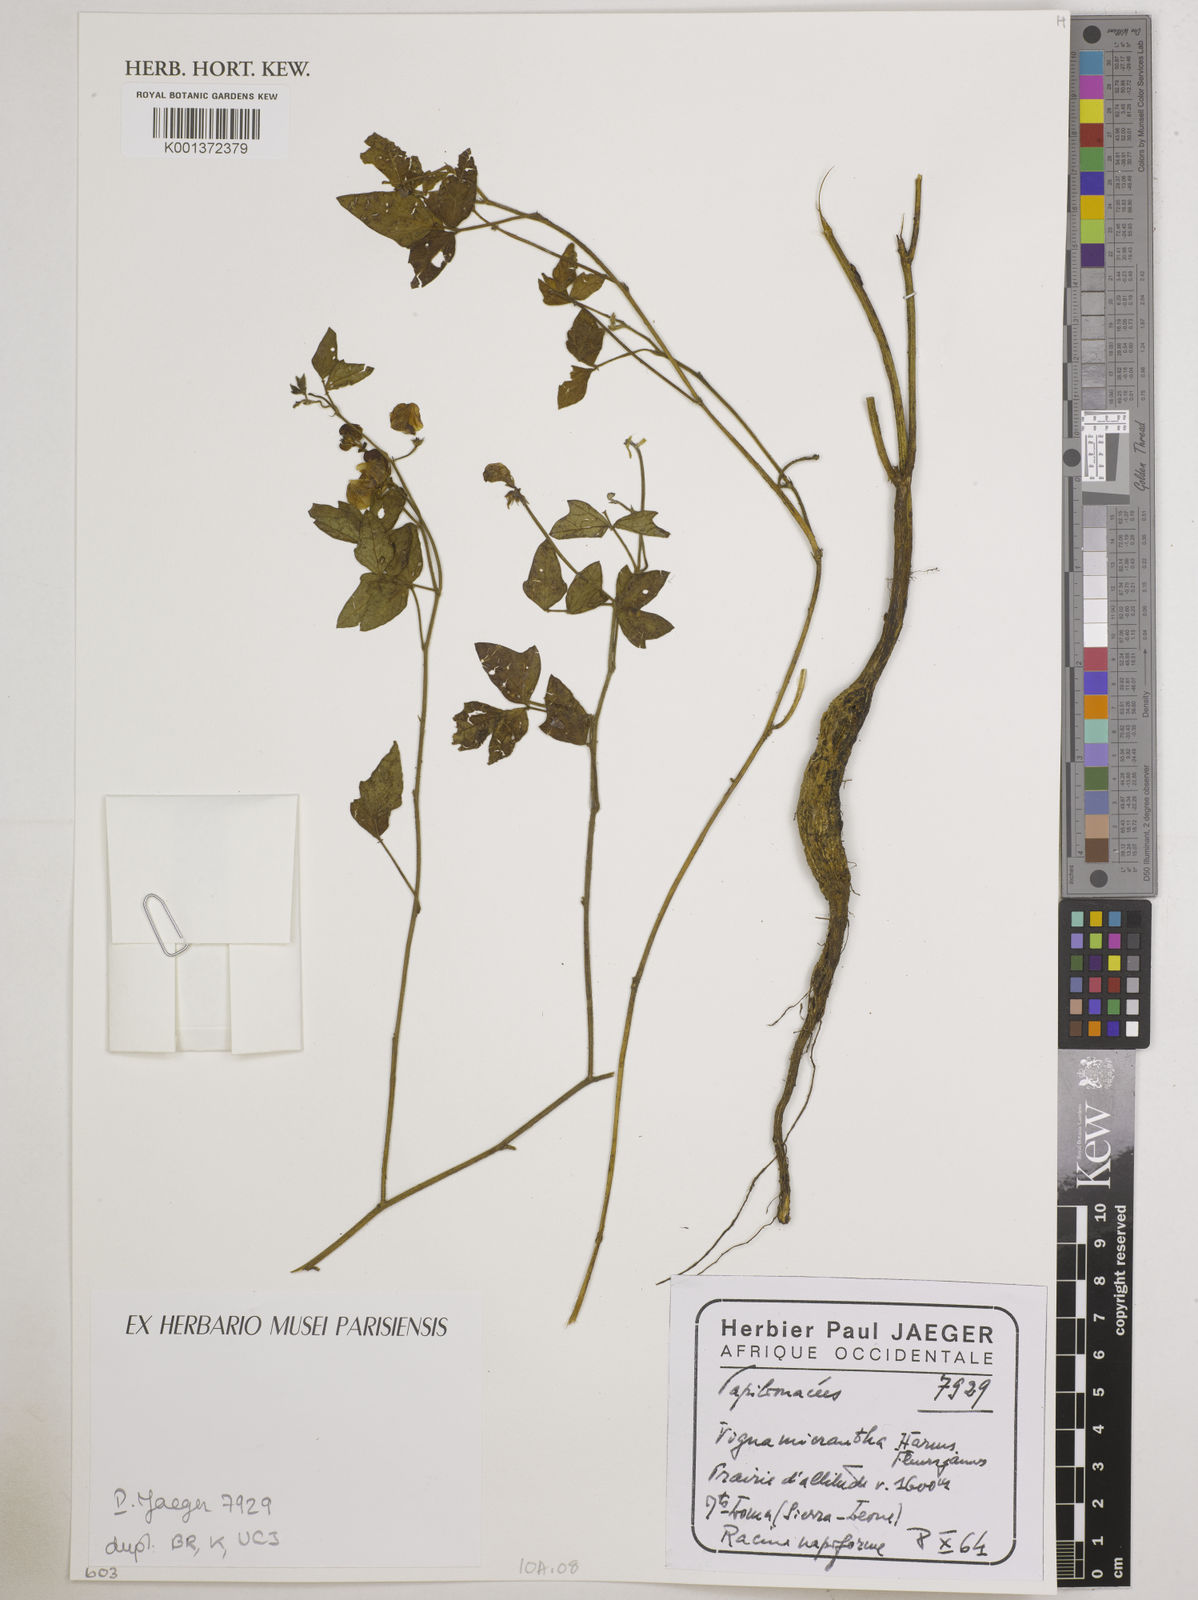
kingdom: Plantae
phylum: Tracheophyta
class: Magnoliopsida
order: Fabales
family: Fabaceae
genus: Vigna
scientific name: Vigna comosa
